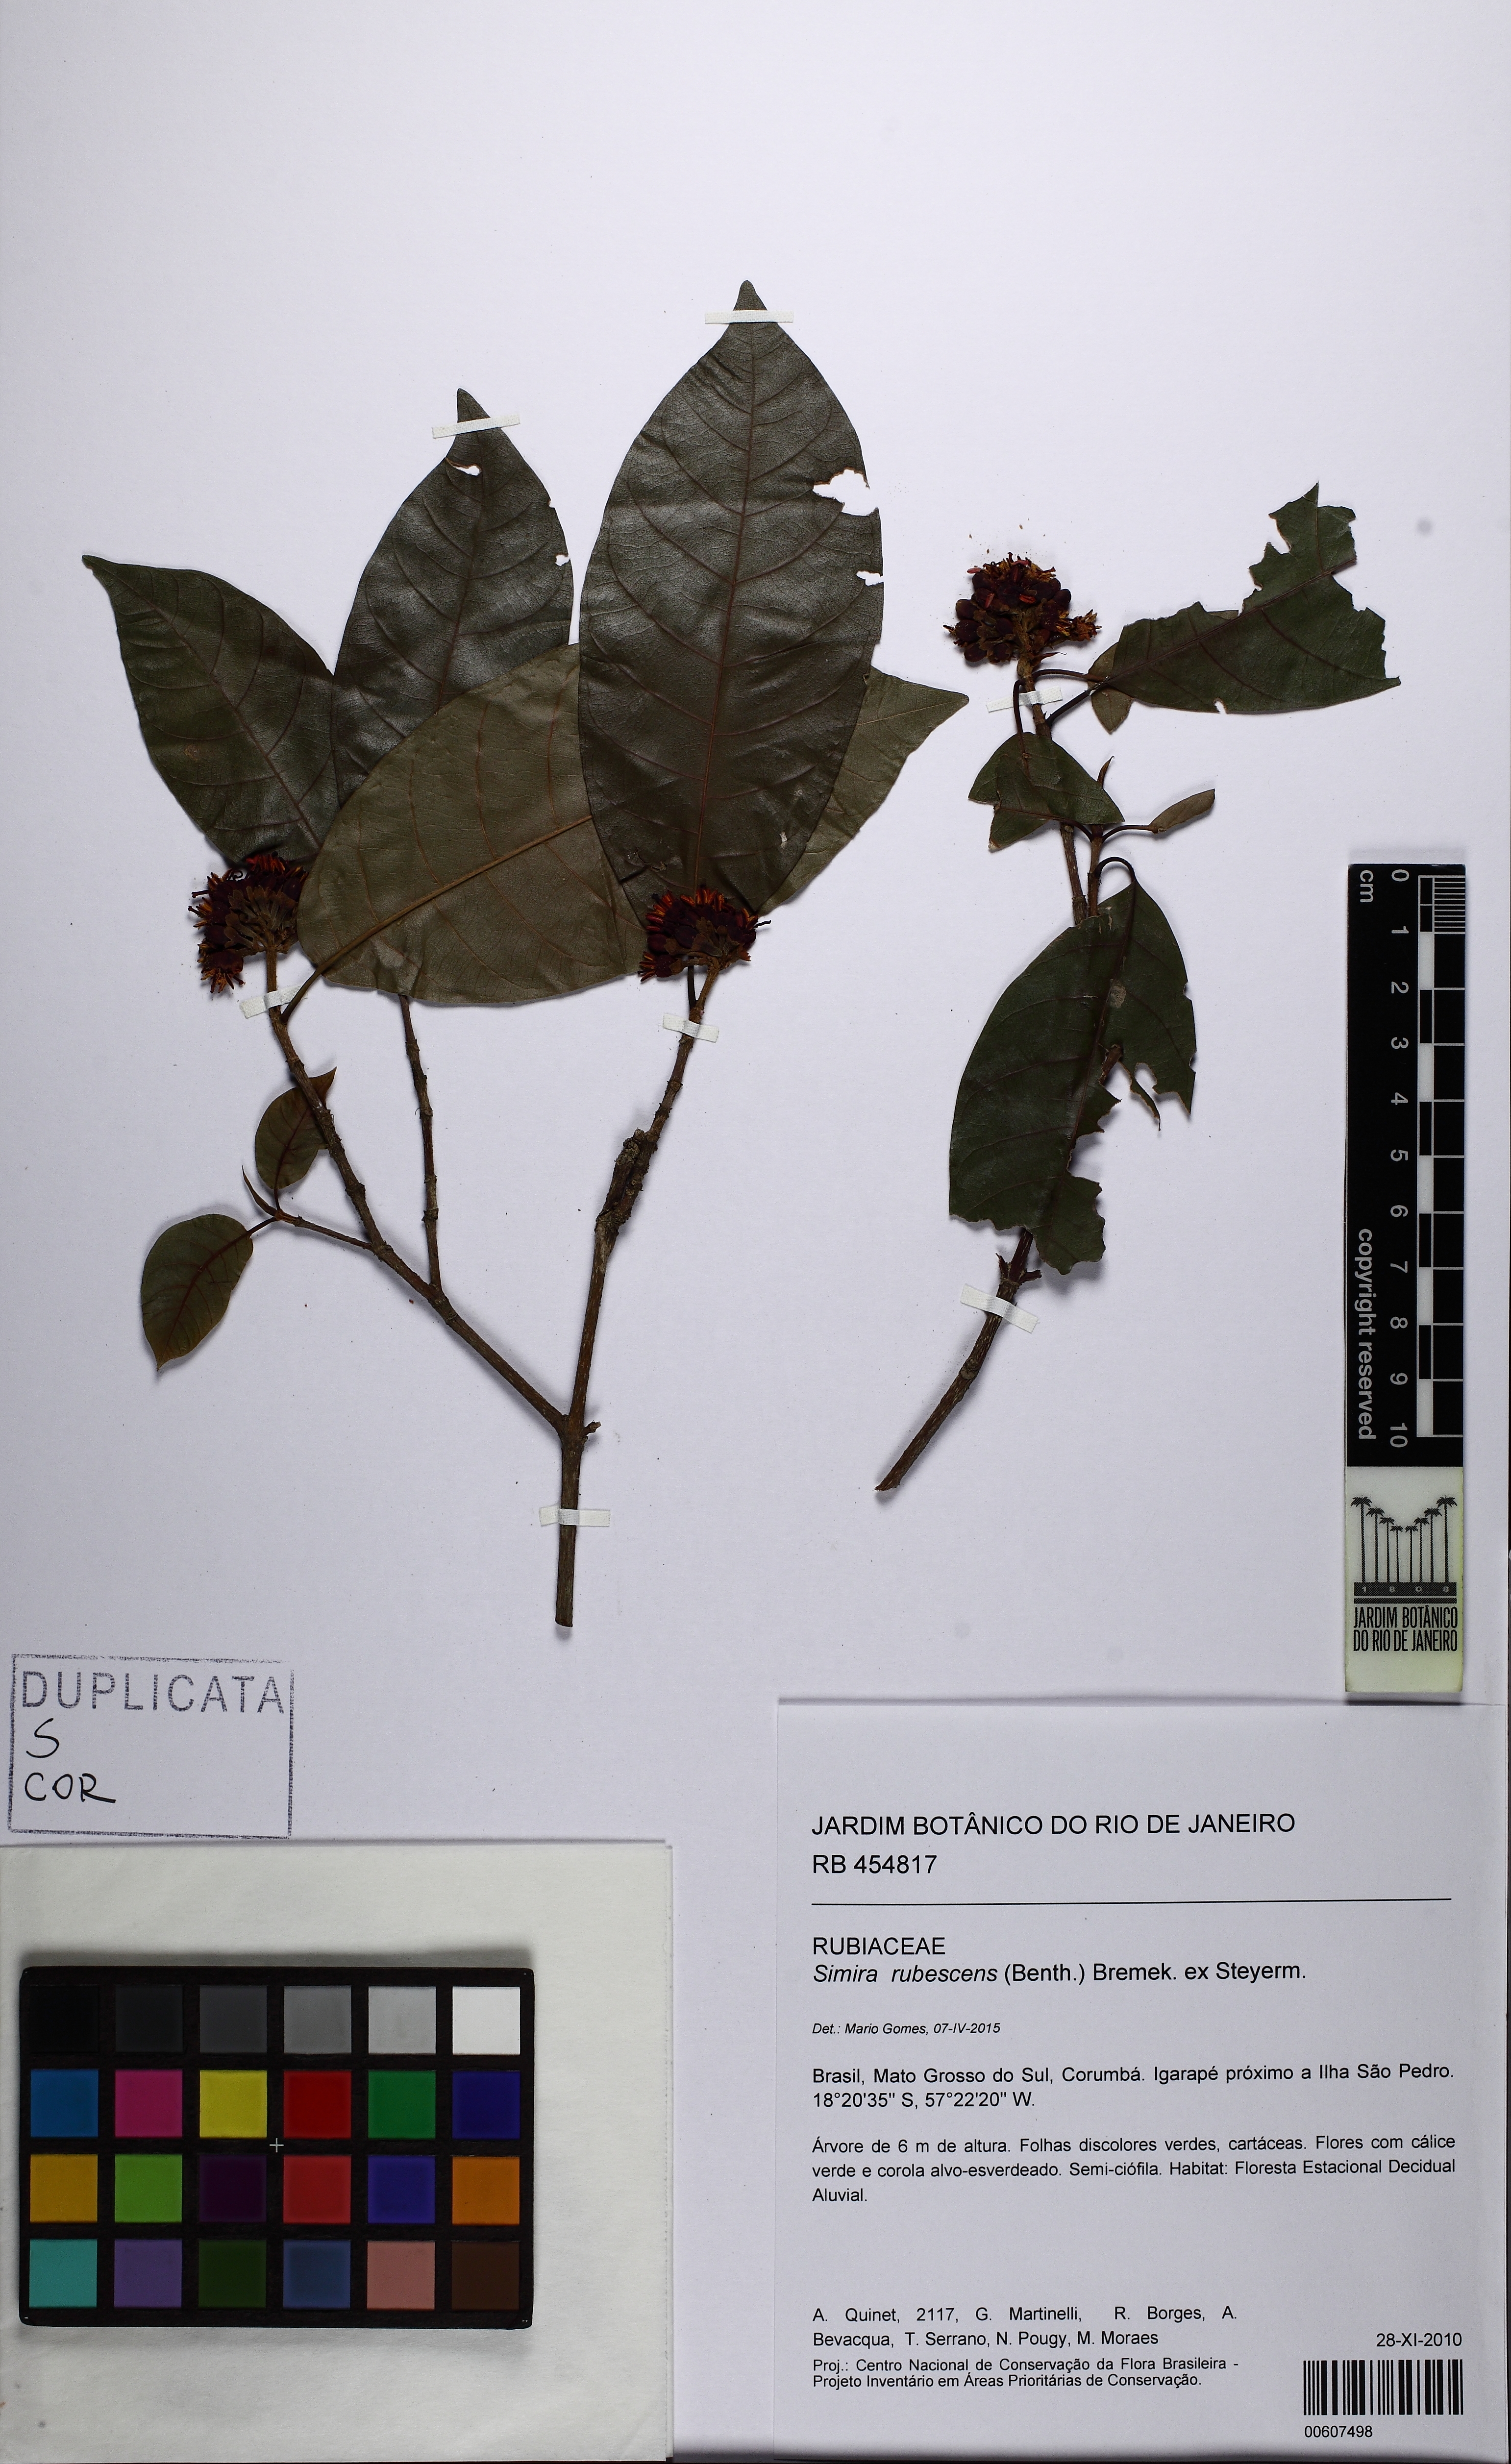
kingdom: Plantae
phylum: Tracheophyta
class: Magnoliopsida
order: Gentianales
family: Rubiaceae
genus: Simira
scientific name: Simira rubescens
